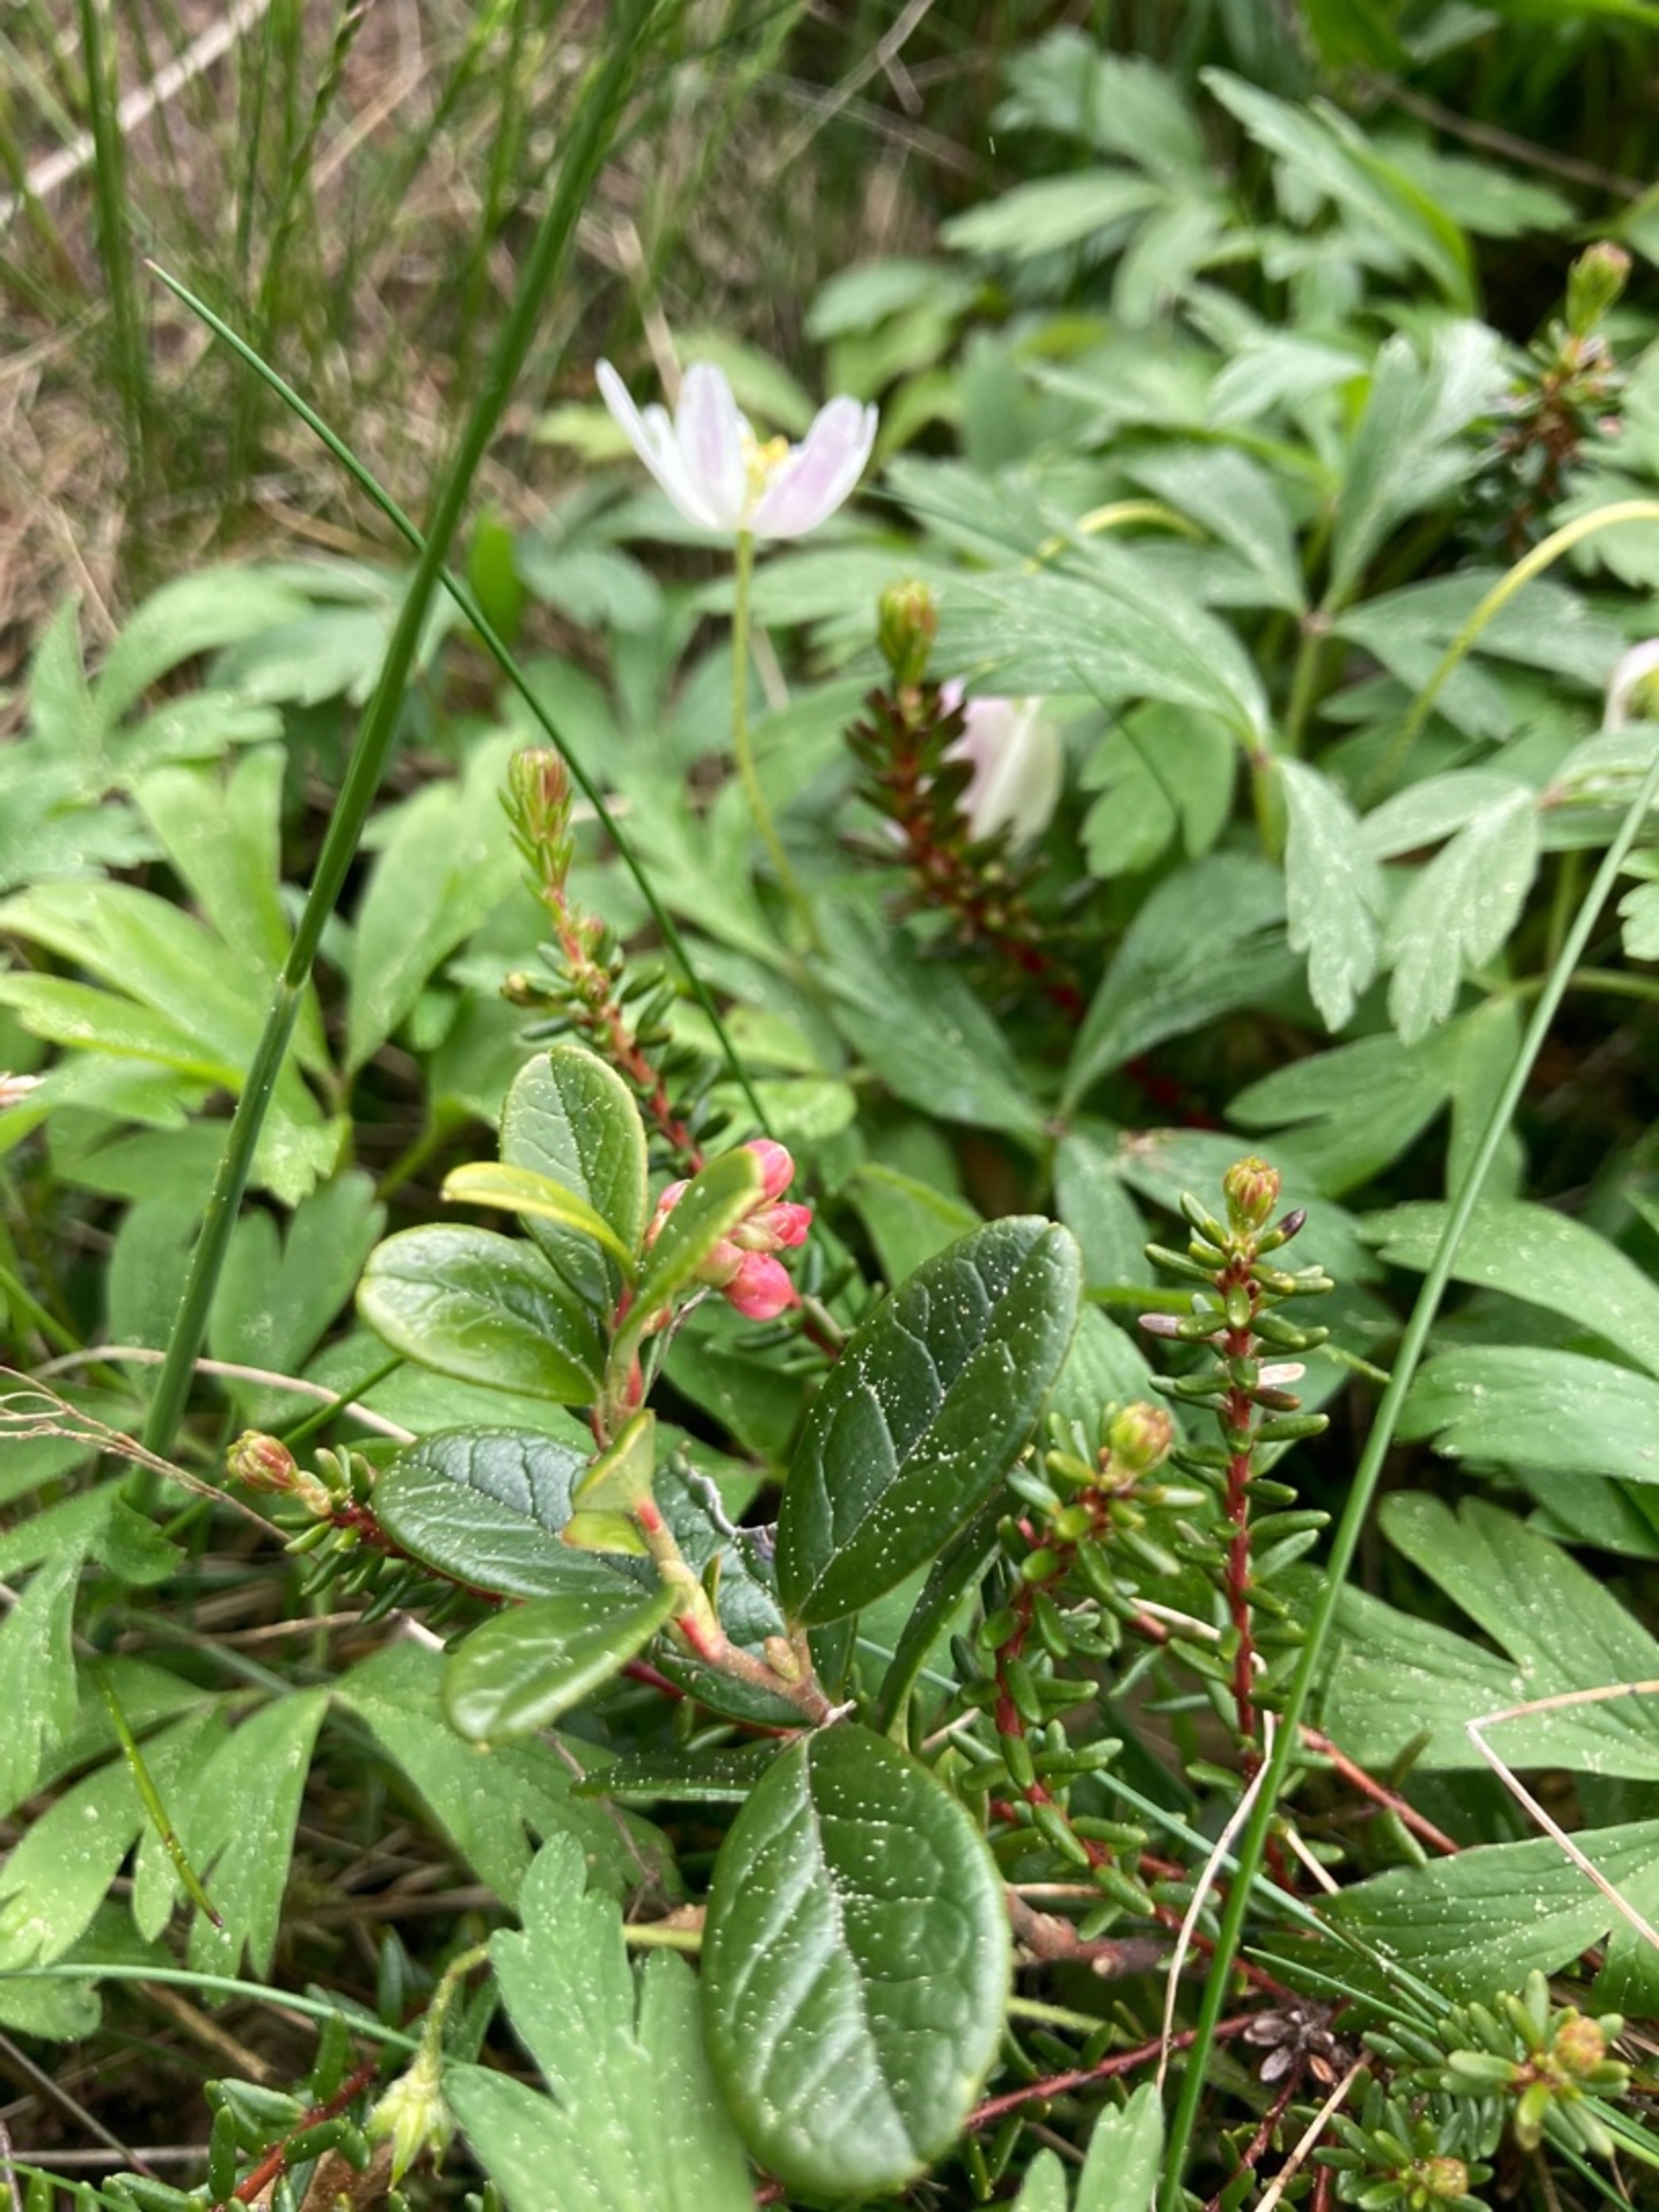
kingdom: Plantae
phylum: Tracheophyta
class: Magnoliopsida
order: Ericales
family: Ericaceae
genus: Vaccinium
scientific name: Vaccinium vitis-idaea
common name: Tyttebær
